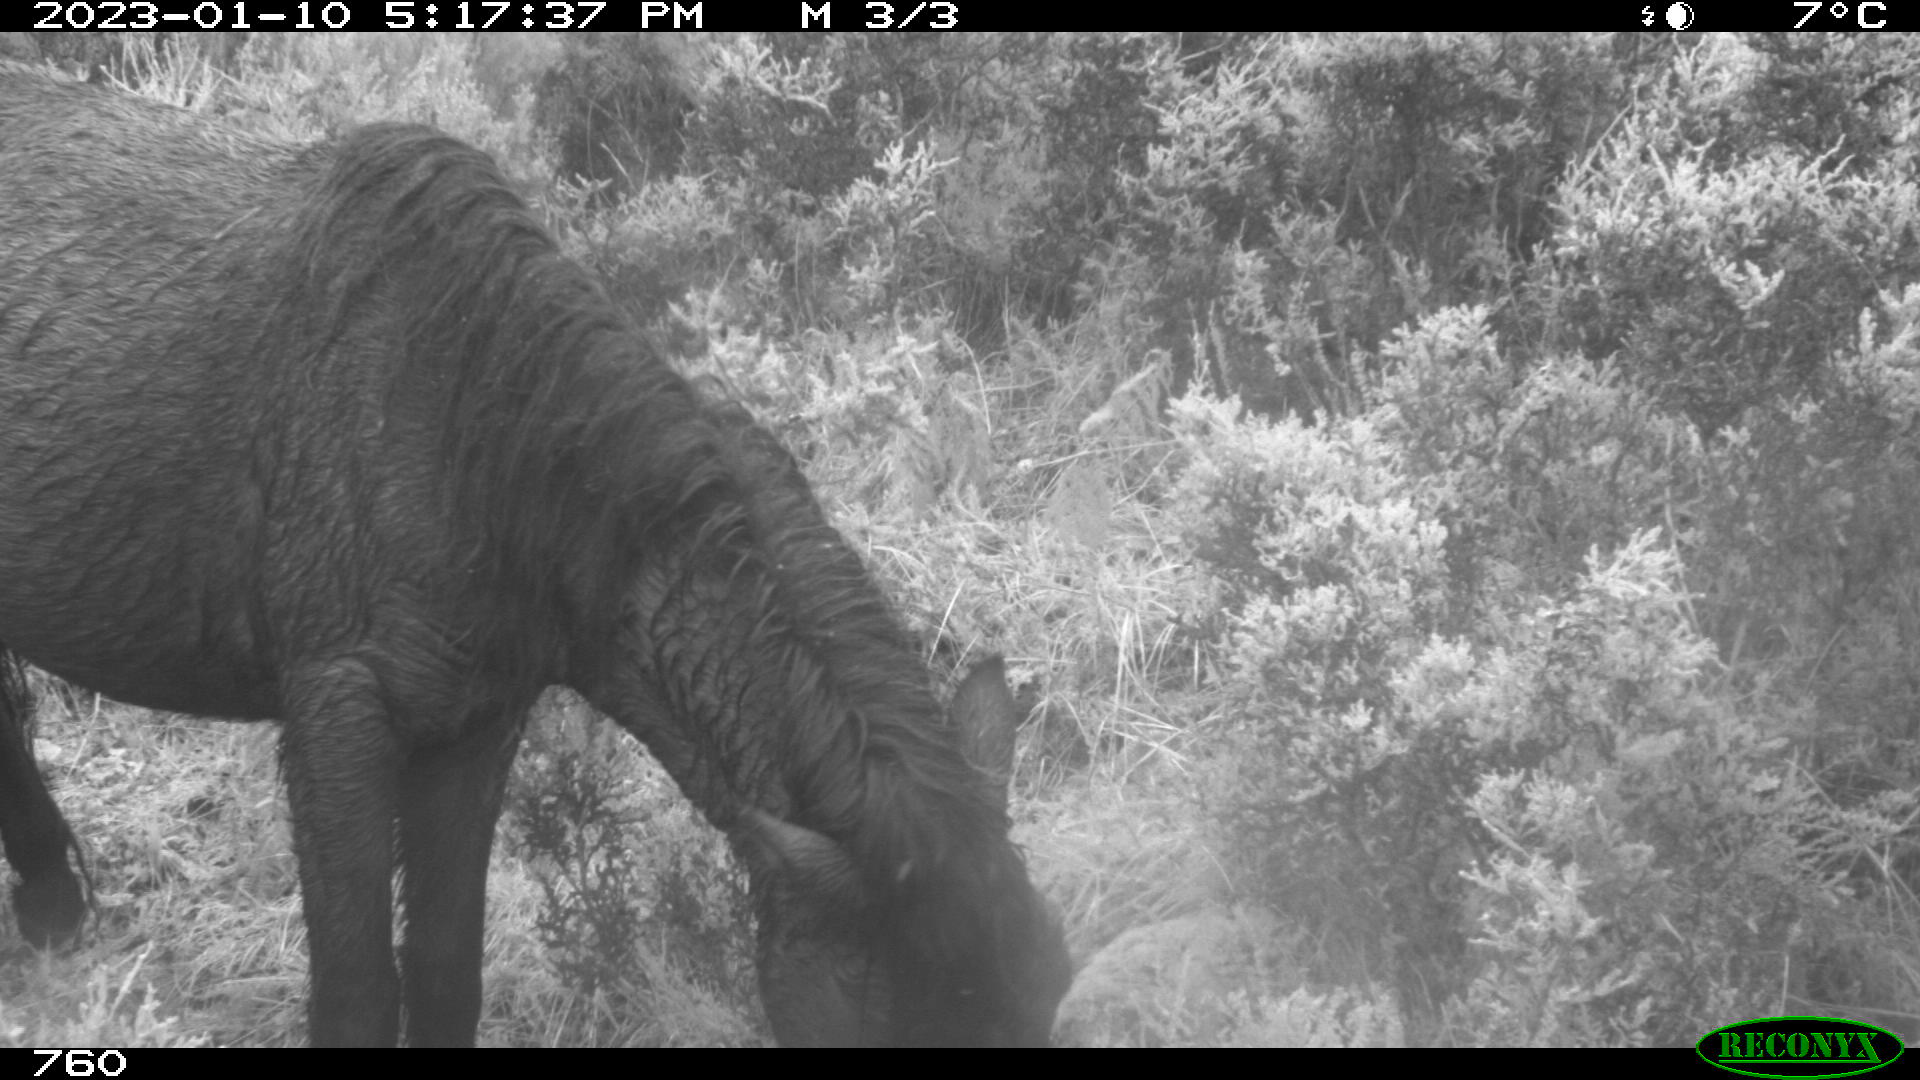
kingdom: Animalia
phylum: Chordata
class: Mammalia
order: Perissodactyla
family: Equidae
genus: Equus
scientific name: Equus caballus
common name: Horse
